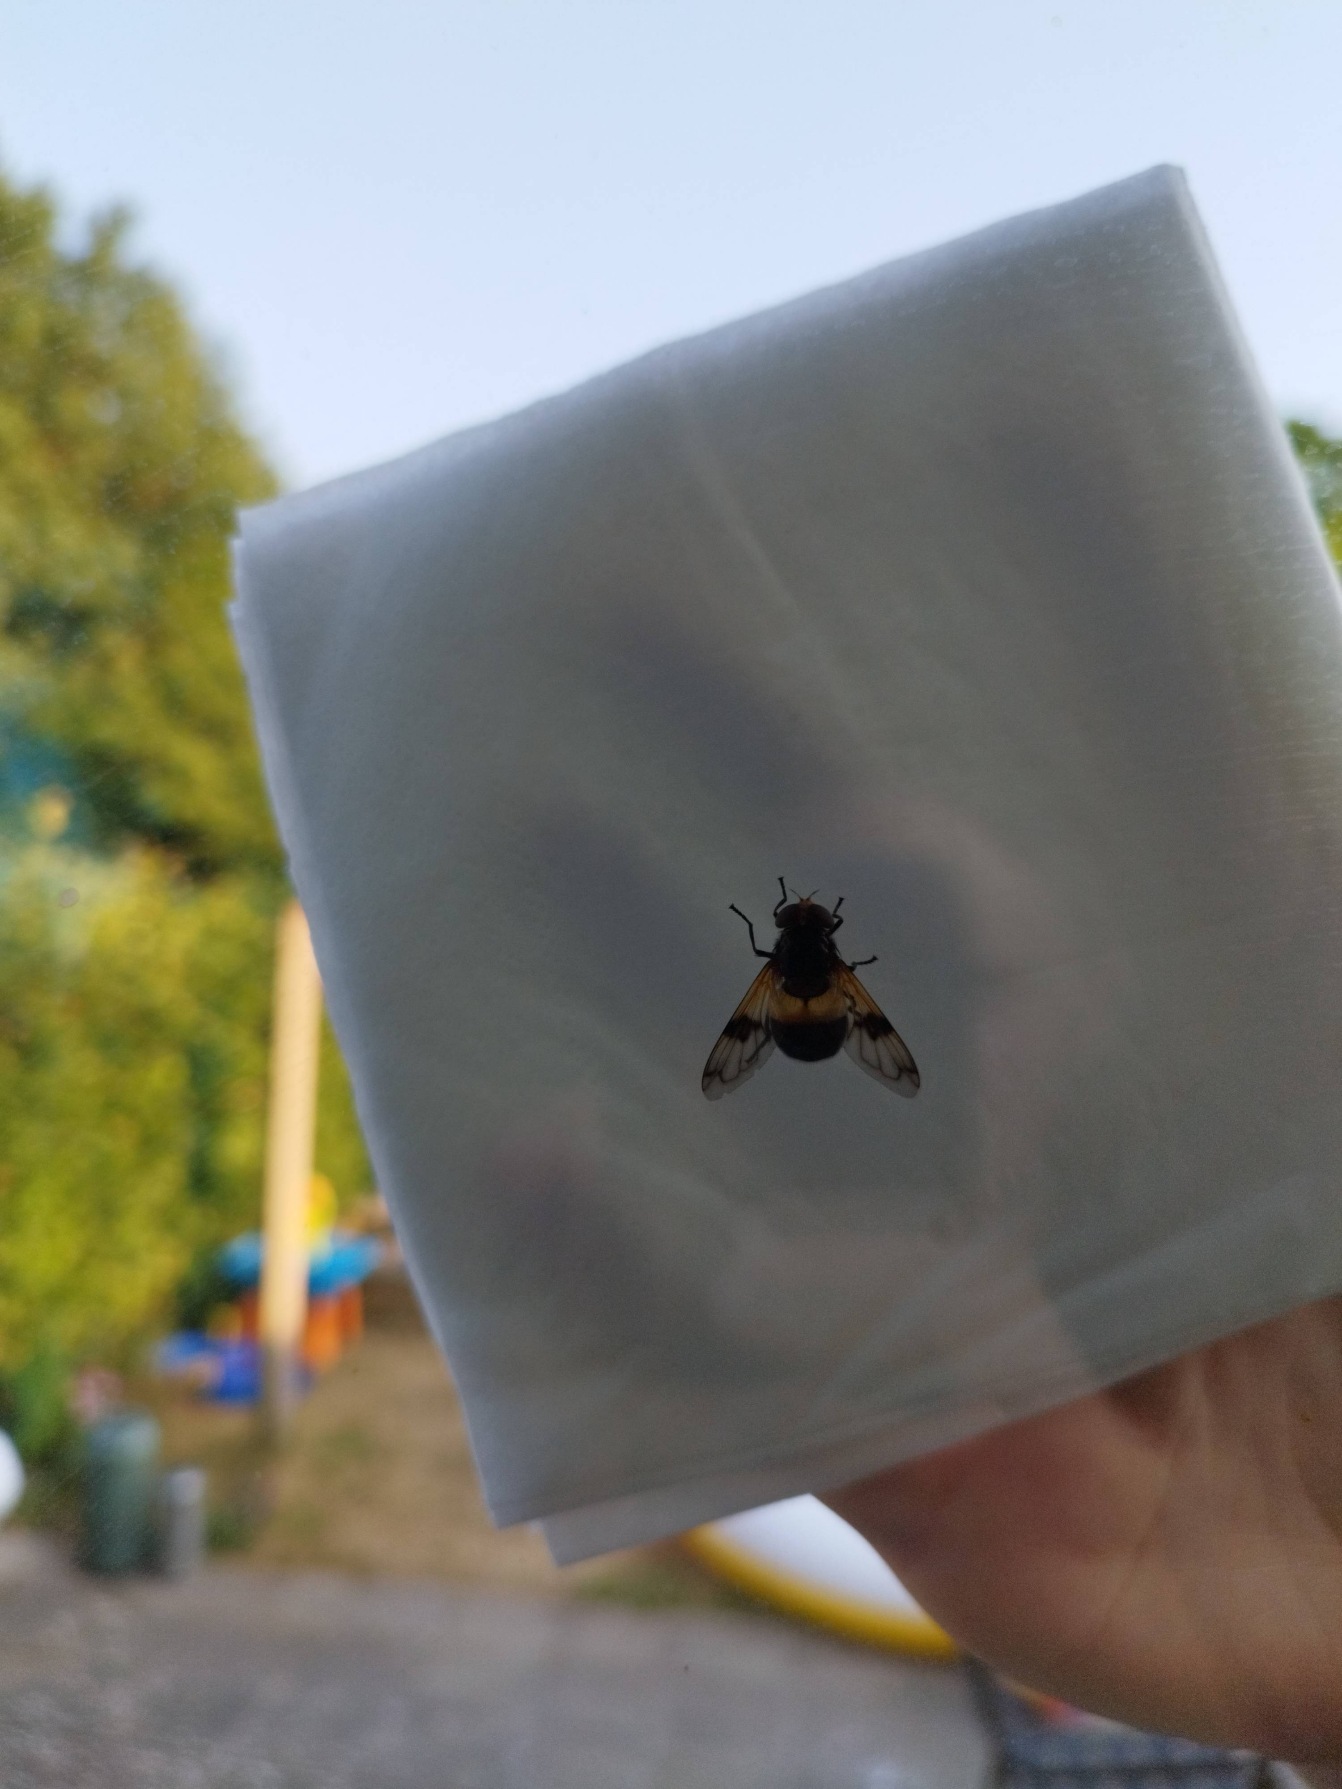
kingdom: Animalia
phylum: Arthropoda
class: Insecta
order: Diptera
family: Syrphidae
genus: Volucella
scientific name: Volucella pellucens
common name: Hvidbåndet humlesvirreflue
